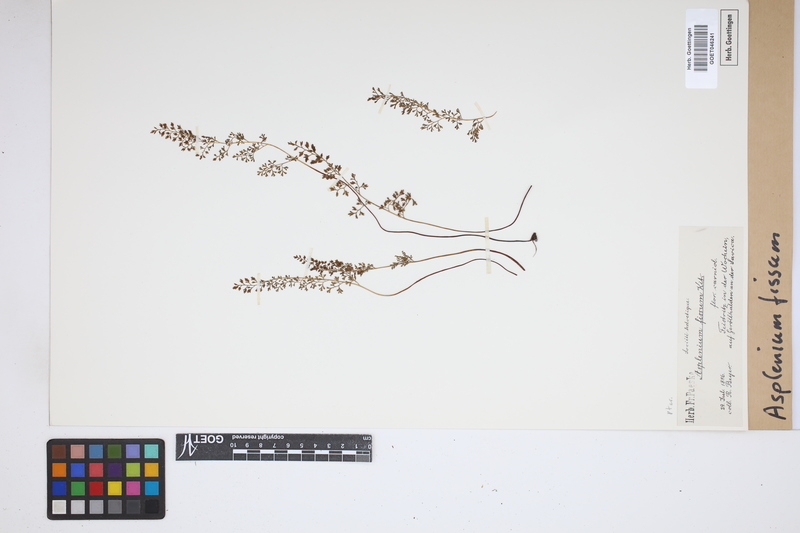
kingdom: Plantae
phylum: Tracheophyta
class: Polypodiopsida
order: Polypodiales
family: Aspleniaceae
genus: Asplenium
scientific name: Asplenium fissum
